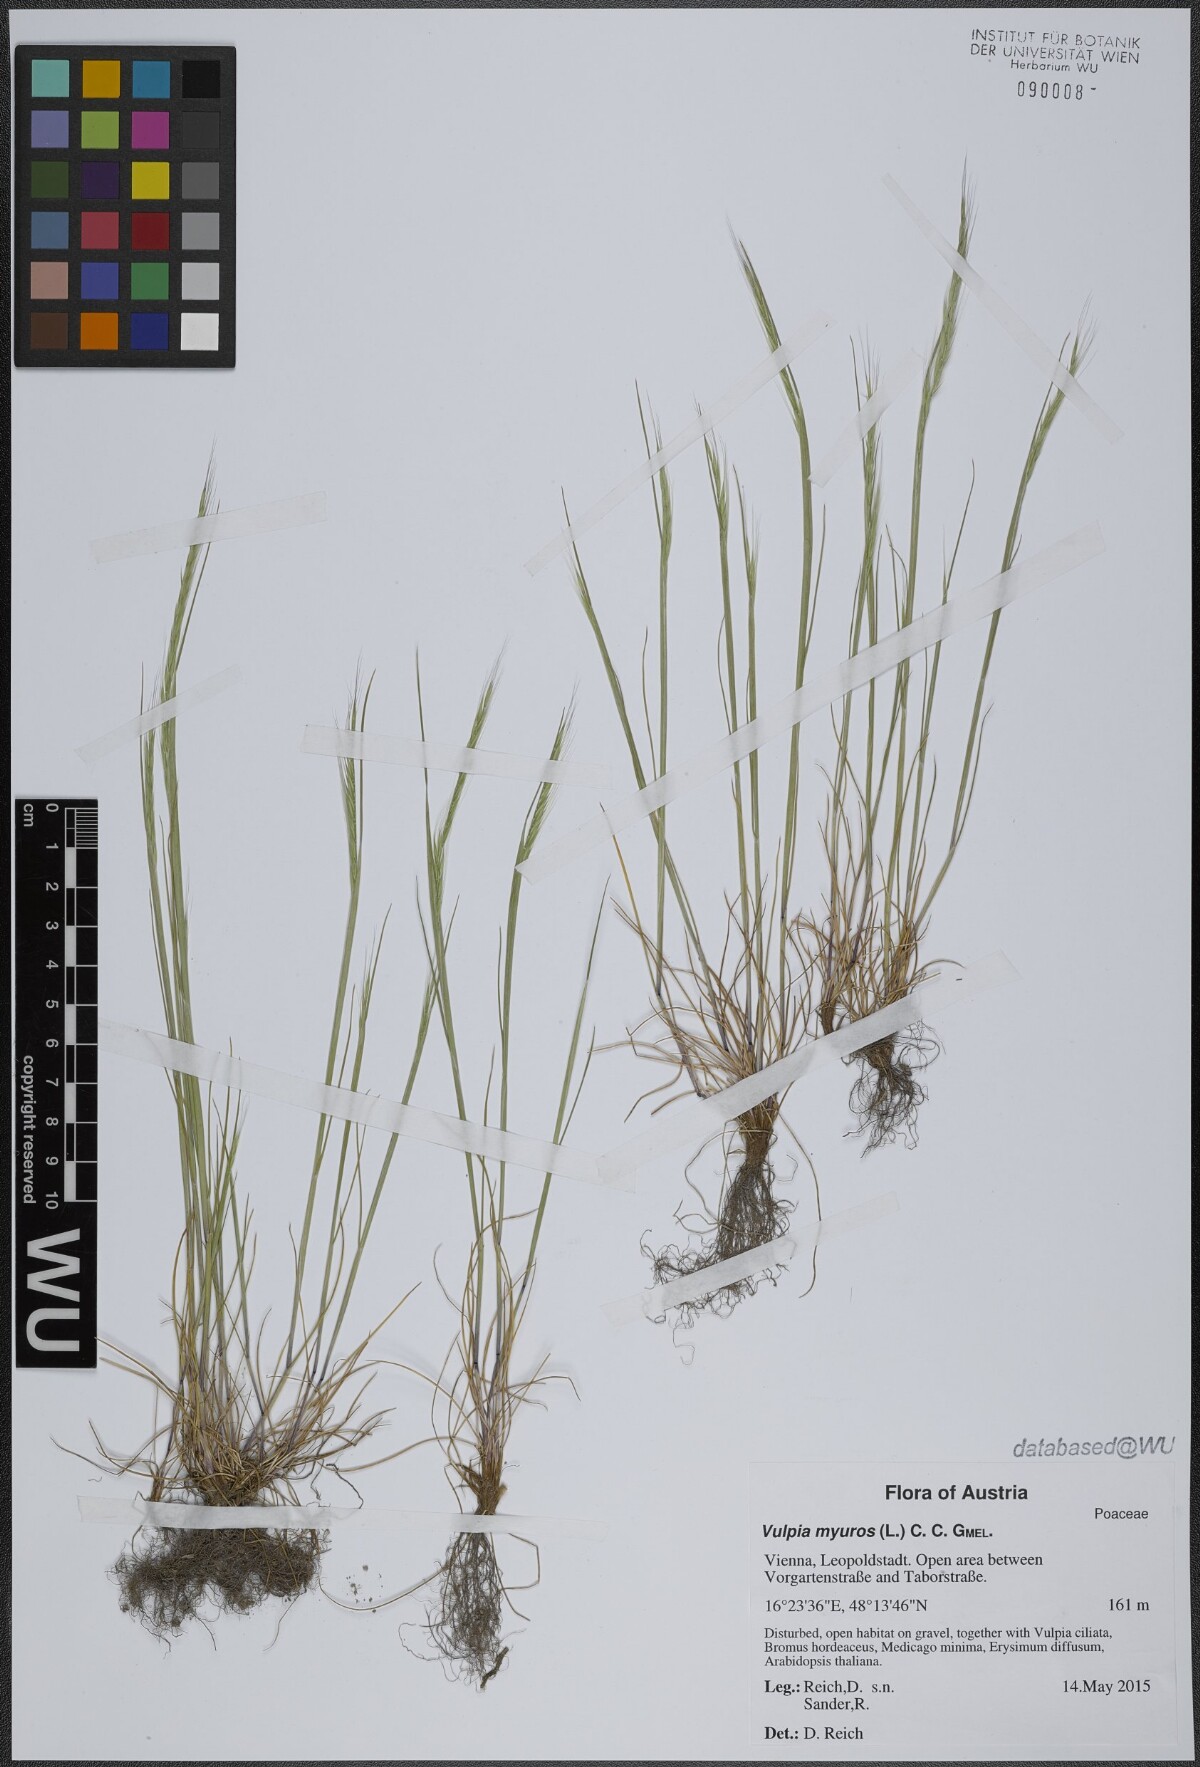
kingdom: Plantae
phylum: Tracheophyta
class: Liliopsida
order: Poales
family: Poaceae
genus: Festuca
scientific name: Festuca myuros
